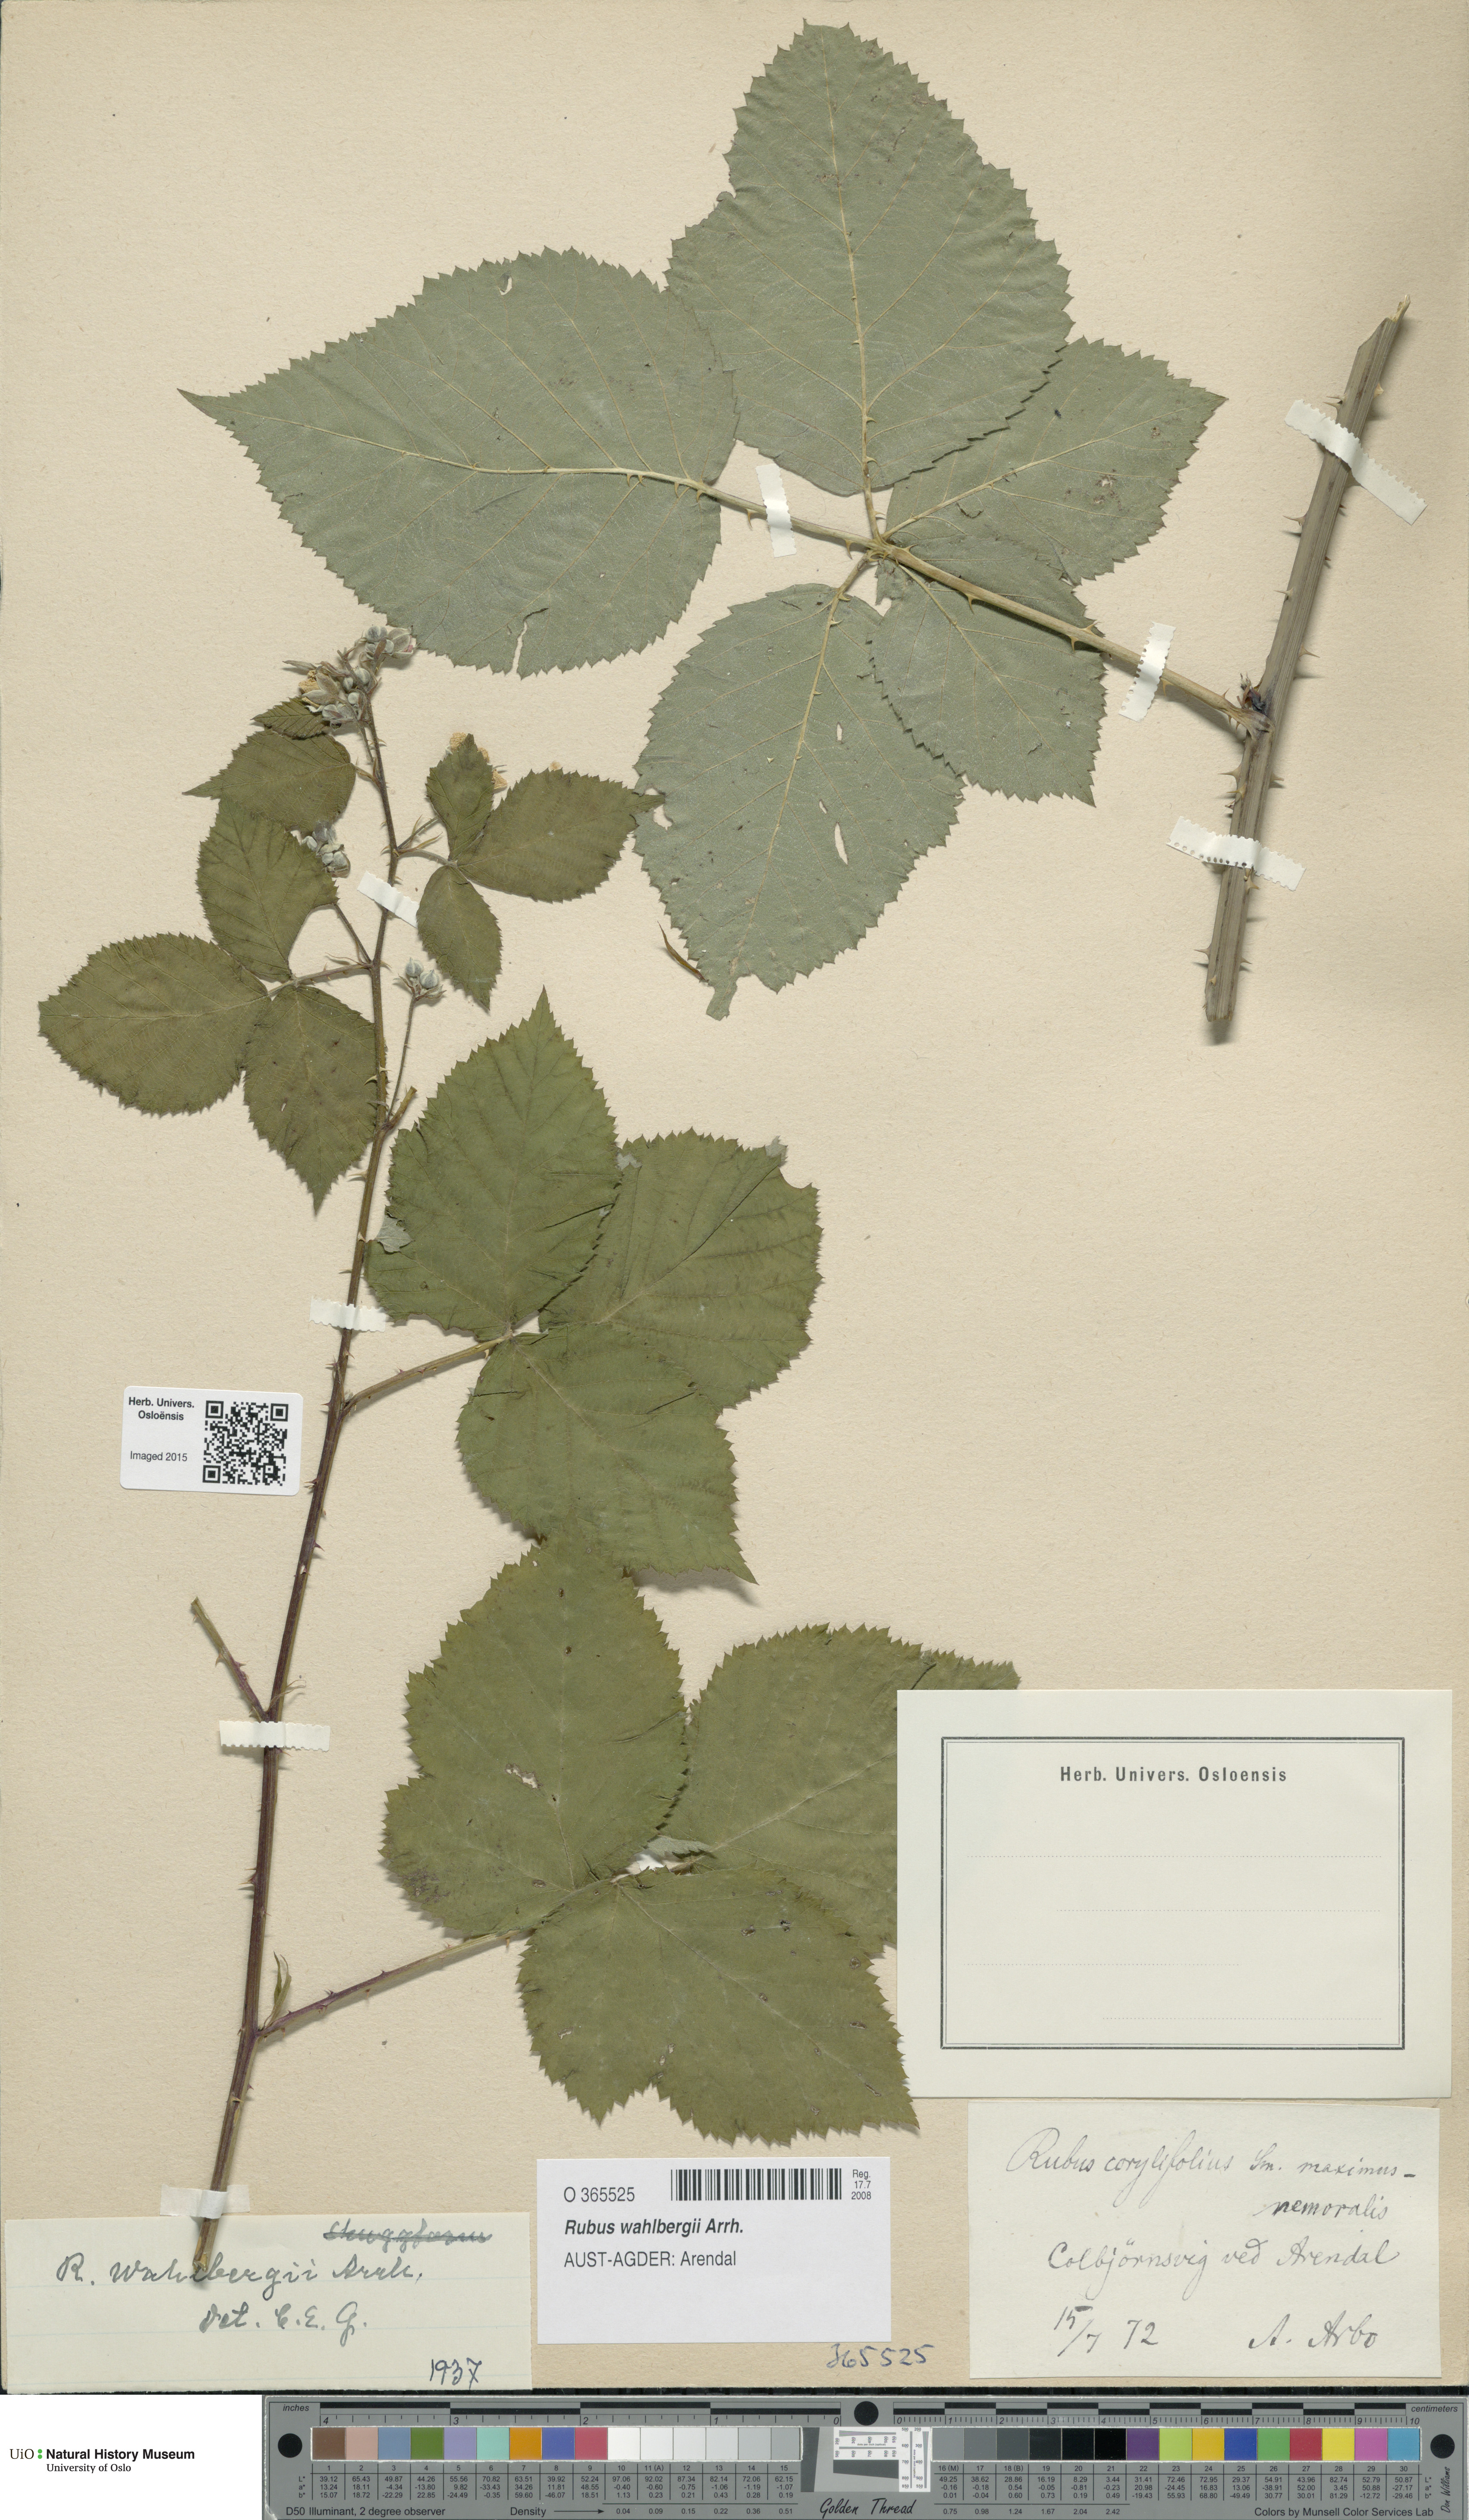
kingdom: Plantae
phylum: Tracheophyta
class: Magnoliopsida
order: Rosales
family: Rosaceae
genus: Rubus
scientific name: Rubus wahlbergii
